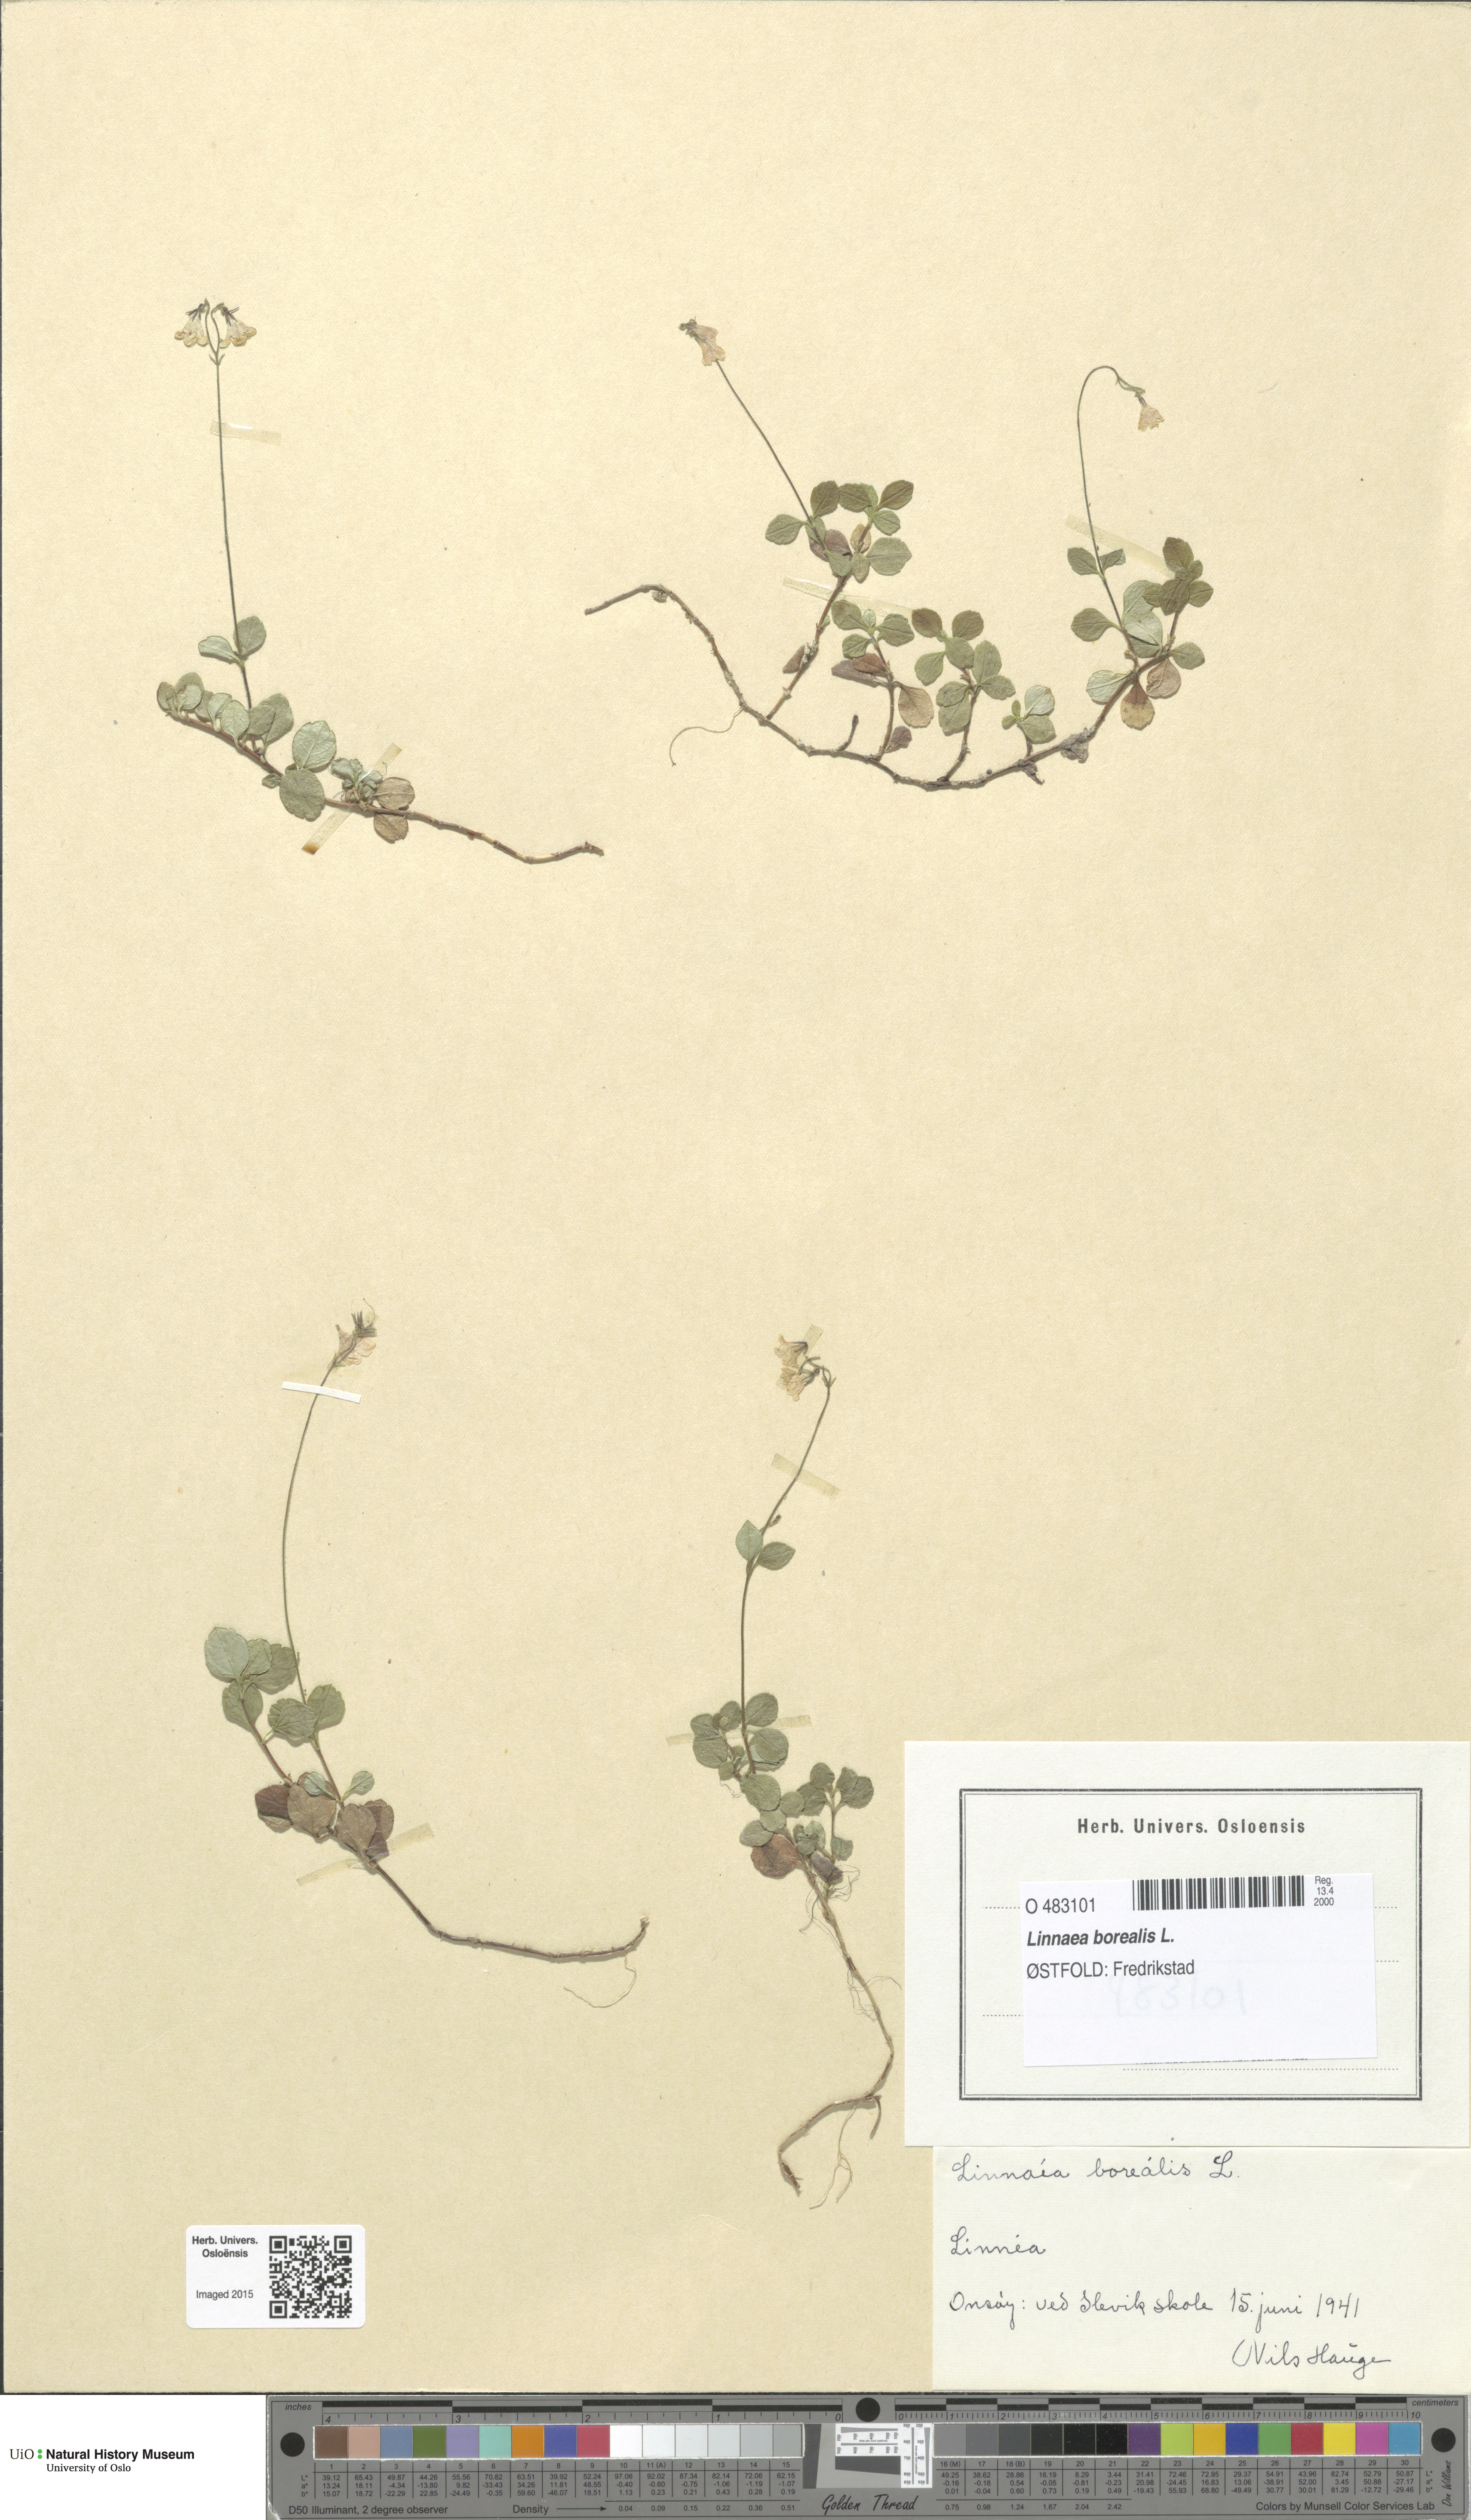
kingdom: Plantae
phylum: Tracheophyta
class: Magnoliopsida
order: Dipsacales
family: Caprifoliaceae
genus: Linnaea
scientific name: Linnaea borealis
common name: Twinflower
